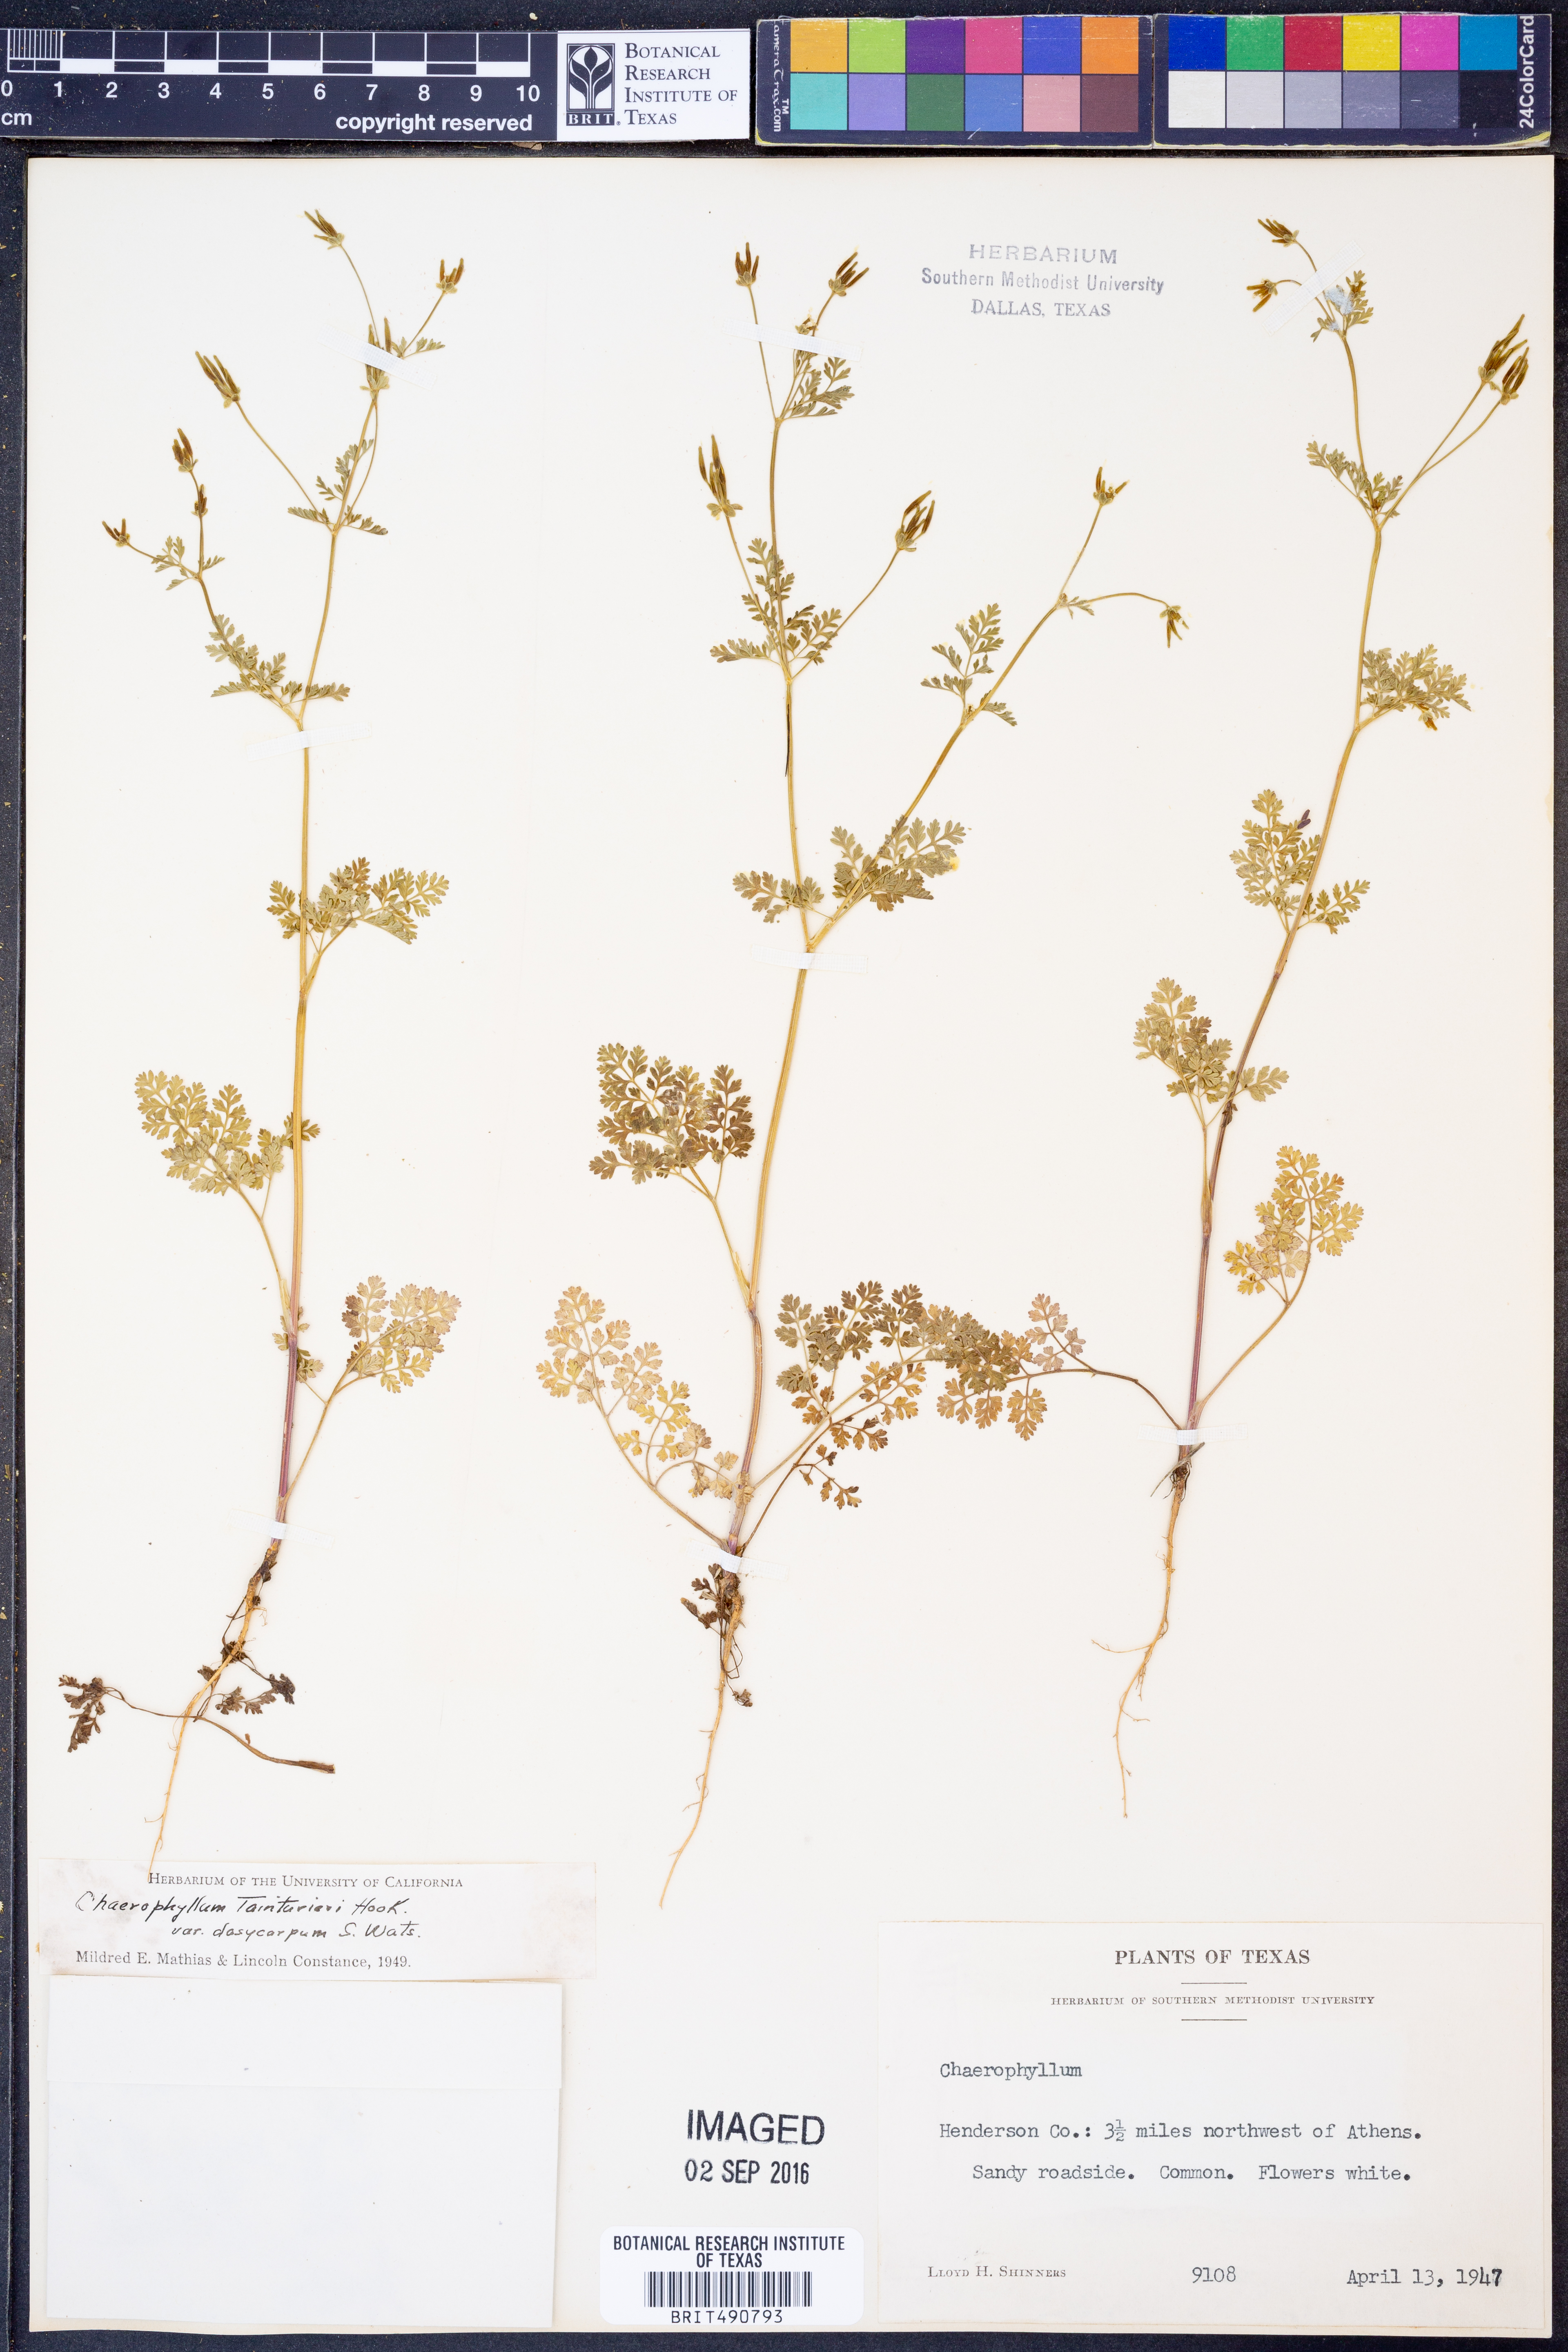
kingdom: Plantae
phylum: Tracheophyta
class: Magnoliopsida
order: Apiales
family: Apiaceae
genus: Chaerophyllum
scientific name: Chaerophyllum dasycarpum
